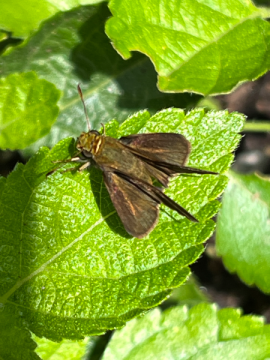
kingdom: Animalia
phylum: Arthropoda
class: Insecta
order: Lepidoptera
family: Hesperiidae
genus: Euphyes
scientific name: Euphyes vestris
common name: Dun Skipper
